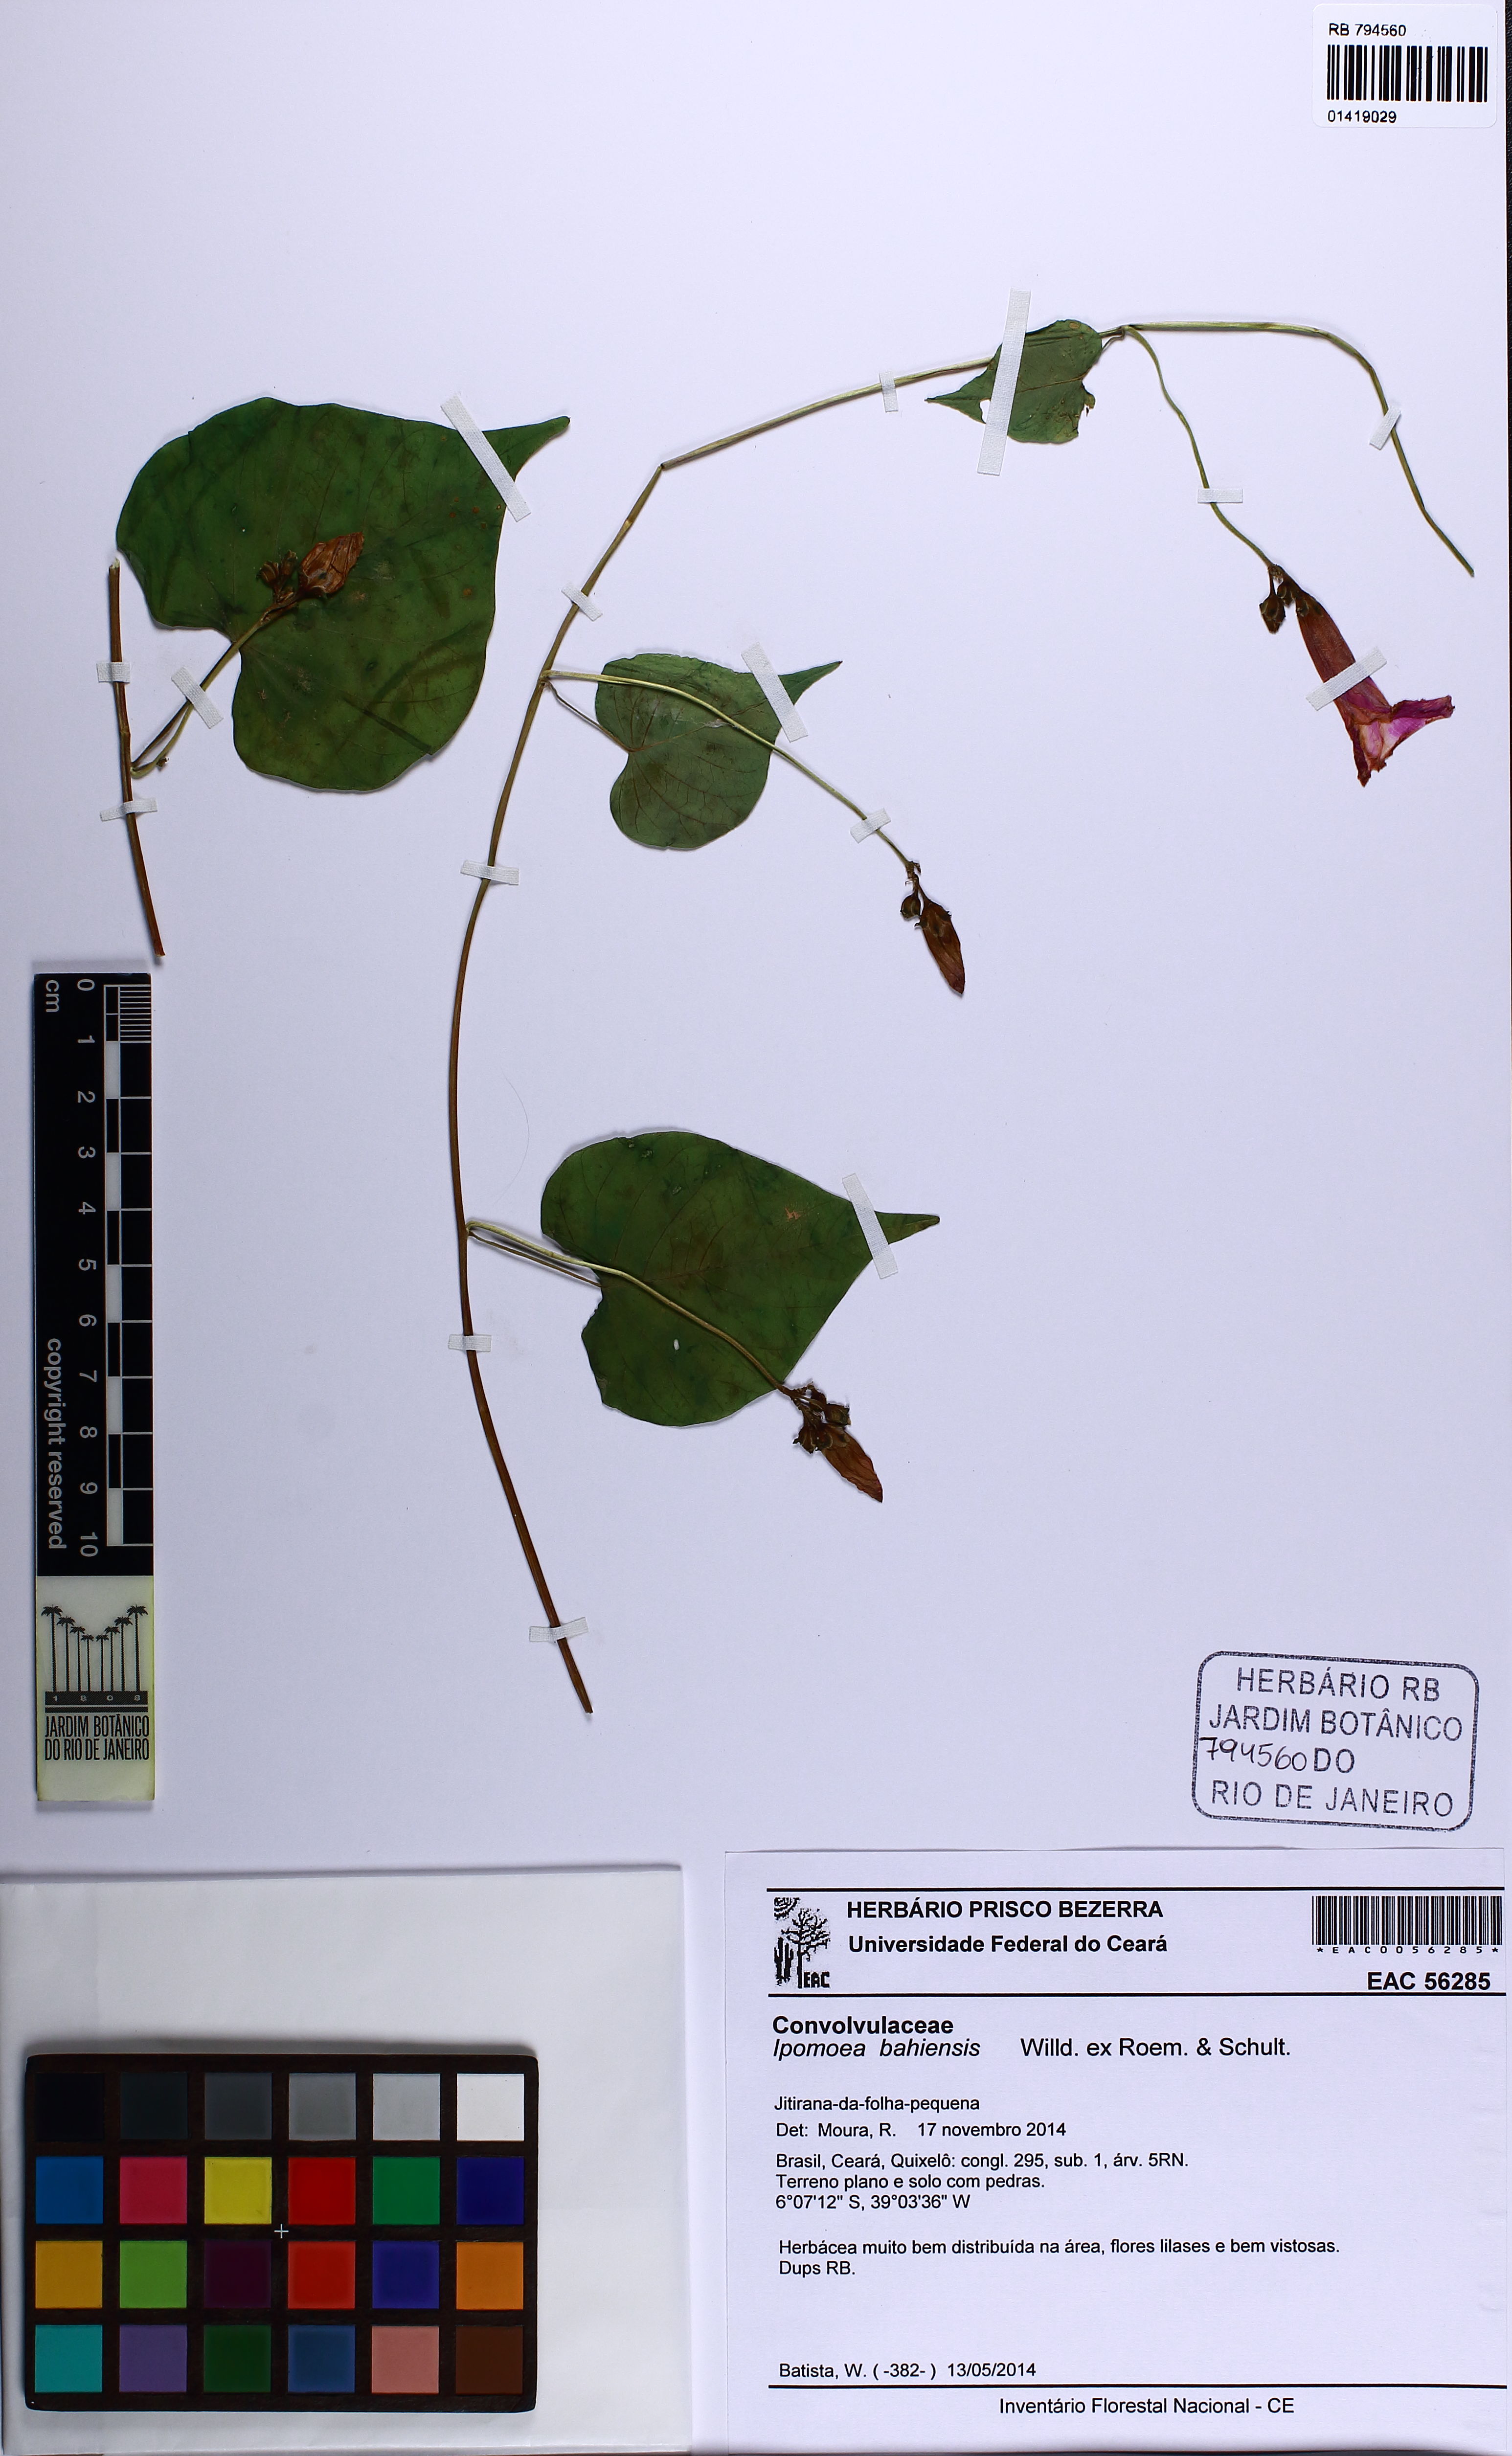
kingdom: Plantae
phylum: Tracheophyta
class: Magnoliopsida
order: Solanales
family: Convolvulaceae
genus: Ipomoea
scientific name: Ipomoea bahiensis
